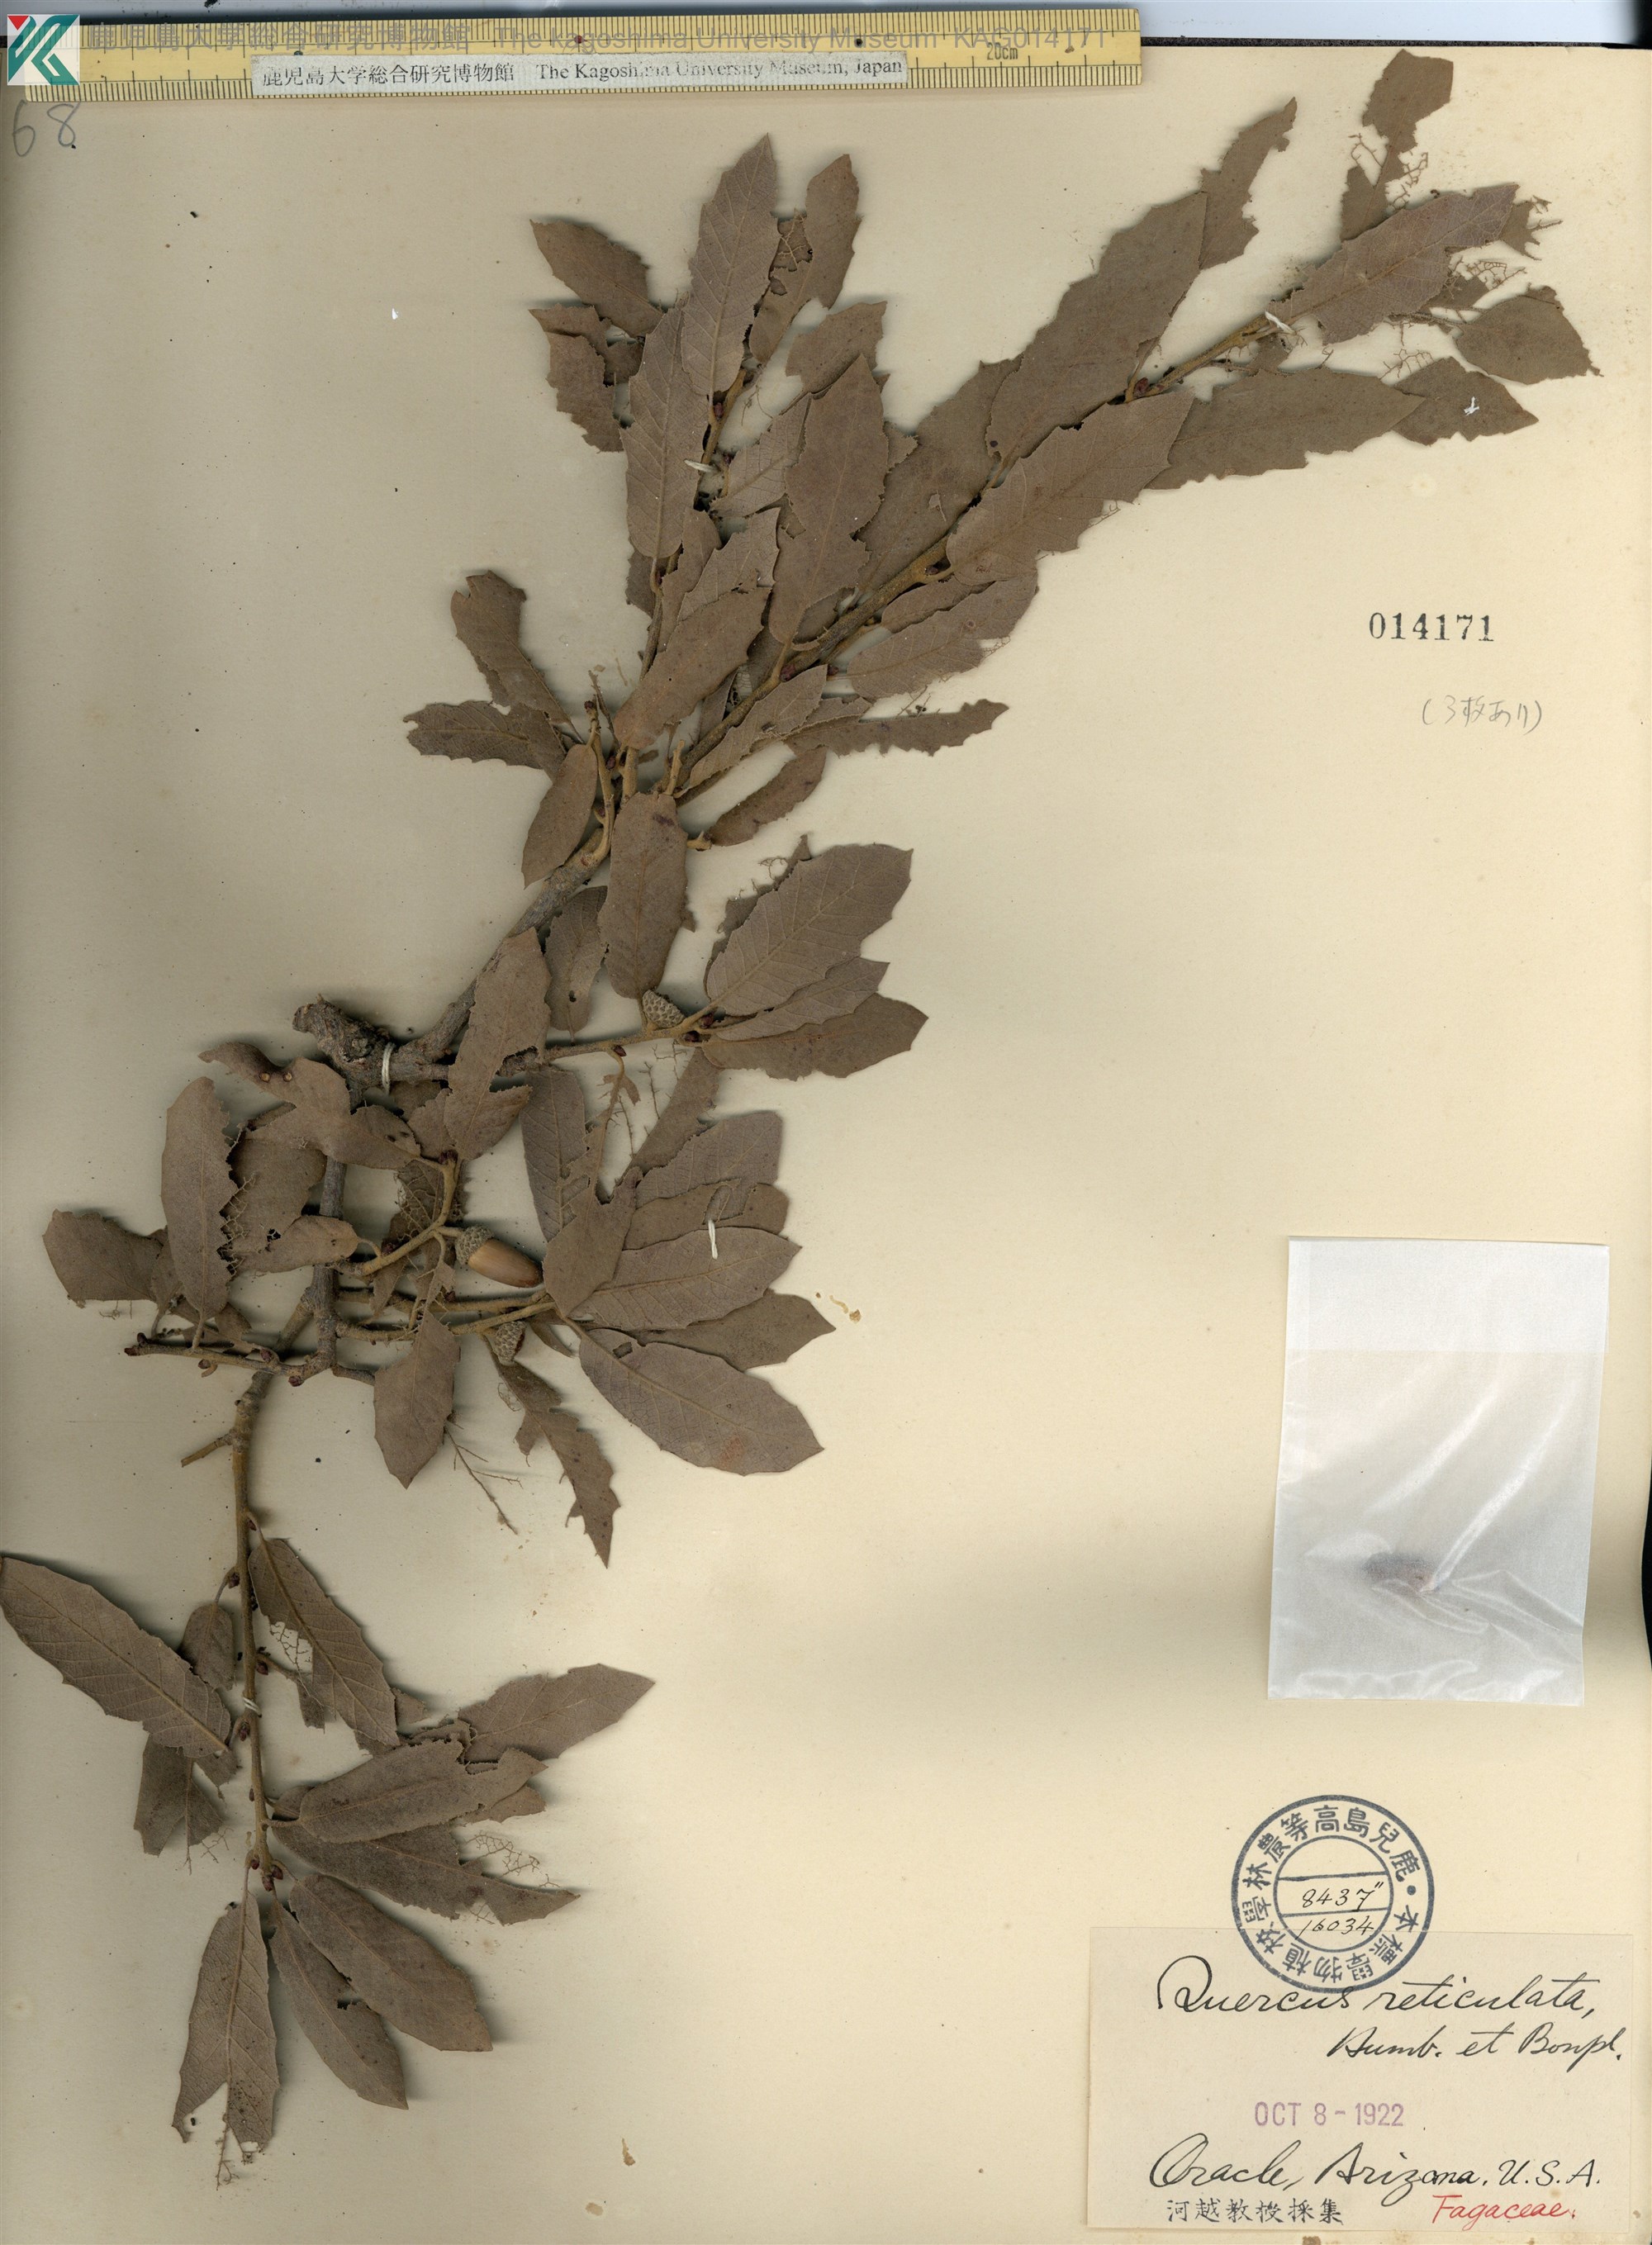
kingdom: Plantae
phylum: Tracheophyta
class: Magnoliopsida
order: Fagales
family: Fagaceae
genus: Quercus
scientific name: Quercus rugosa
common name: Netleaf oak
